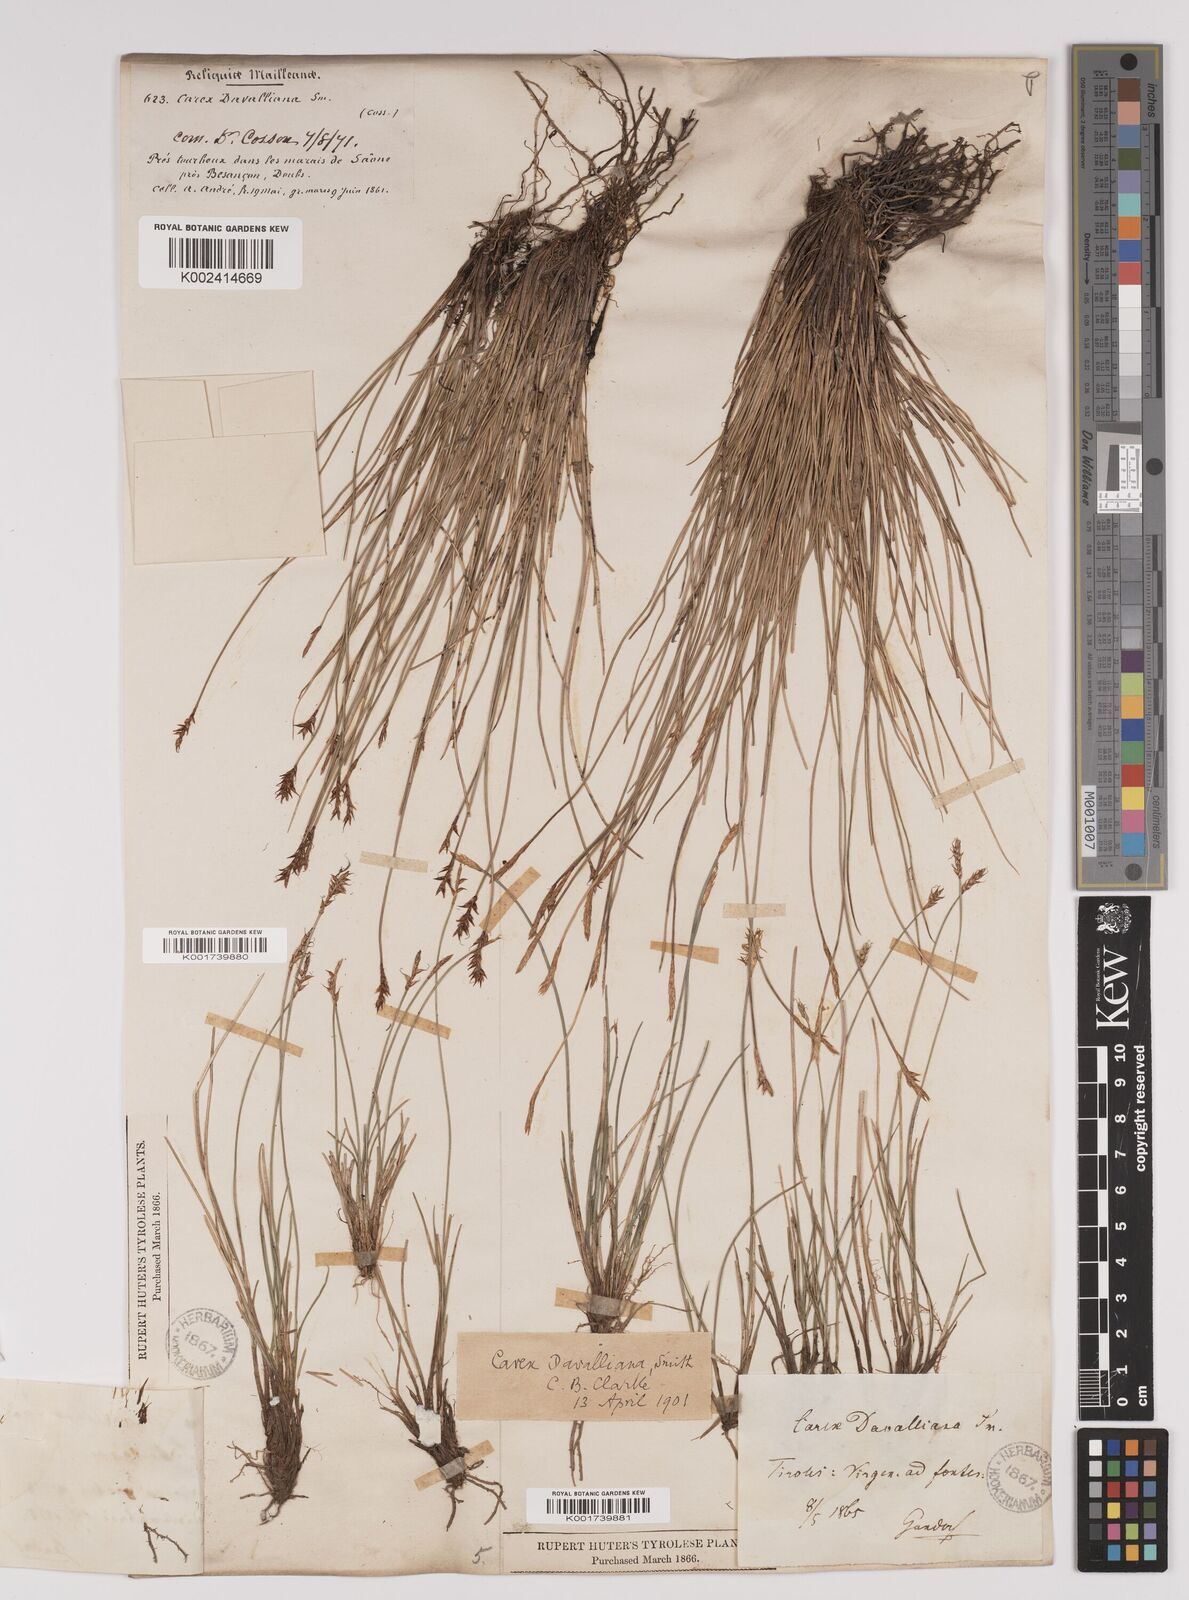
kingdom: Plantae
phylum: Tracheophyta
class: Liliopsida
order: Poales
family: Cyperaceae
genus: Carex
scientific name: Carex davalliana
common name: Davall's sedge
